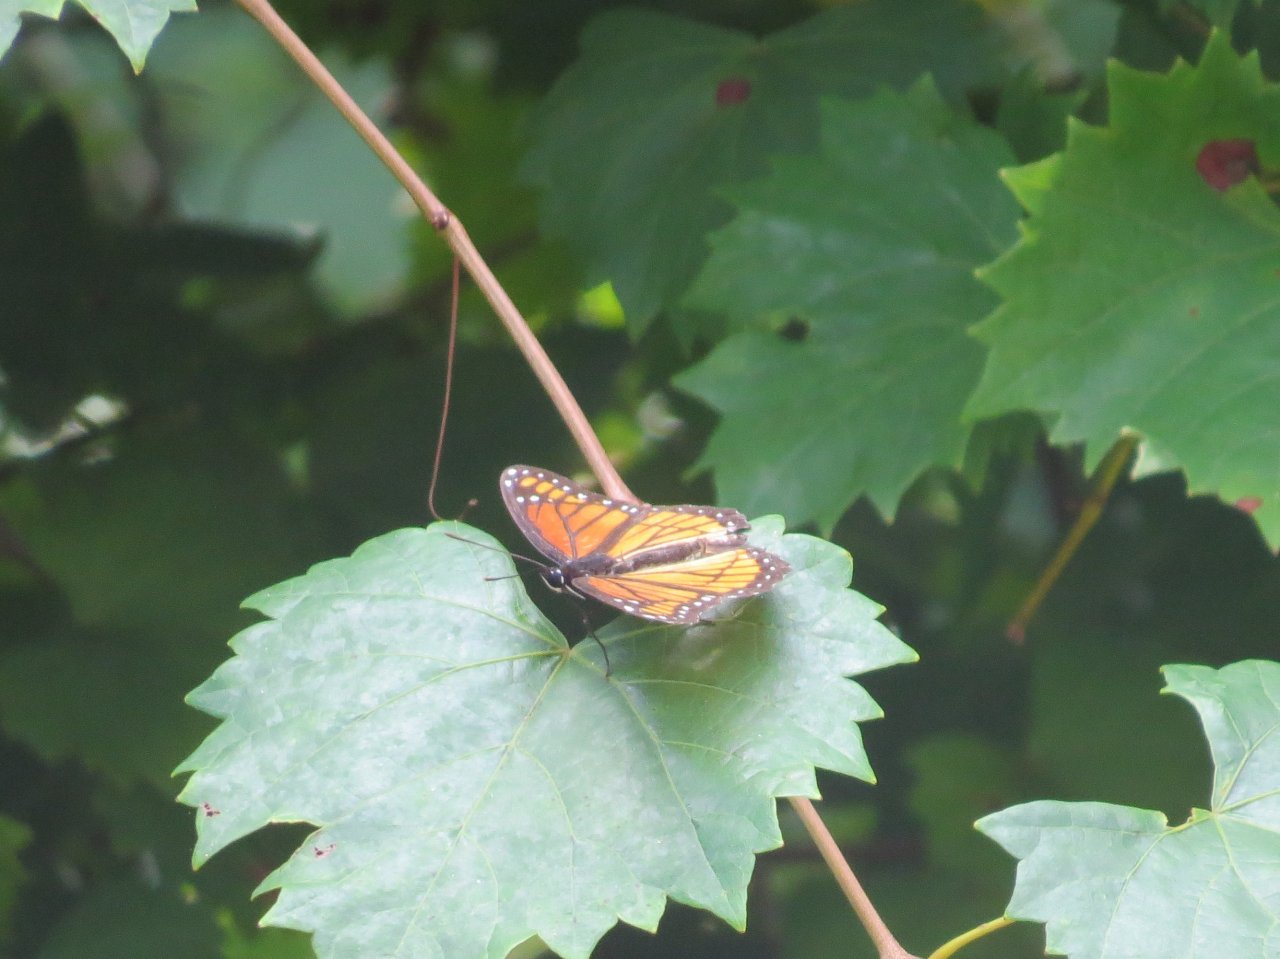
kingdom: Animalia
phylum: Arthropoda
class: Insecta
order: Lepidoptera
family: Nymphalidae
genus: Limenitis
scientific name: Limenitis archippus
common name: Viceroy
